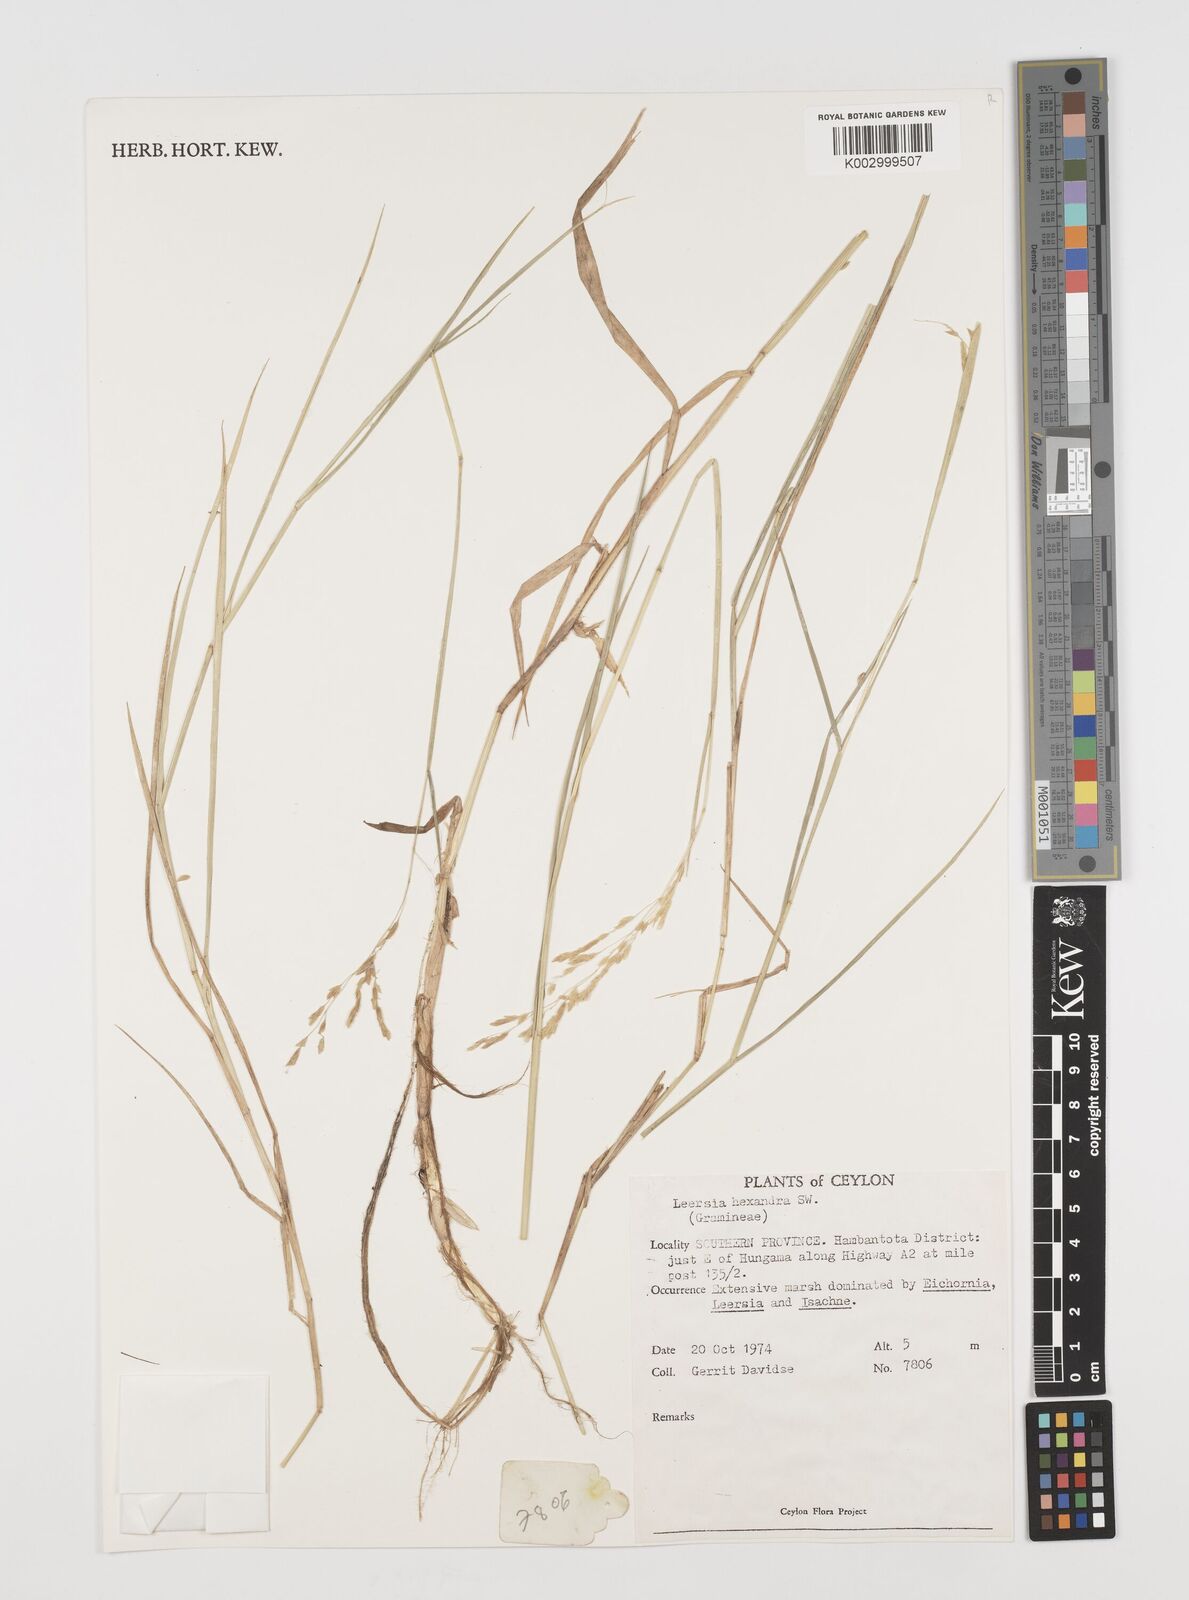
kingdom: Plantae
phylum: Tracheophyta
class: Liliopsida
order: Poales
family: Poaceae
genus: Leersia
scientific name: Leersia hexandra
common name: Southern cut grass
